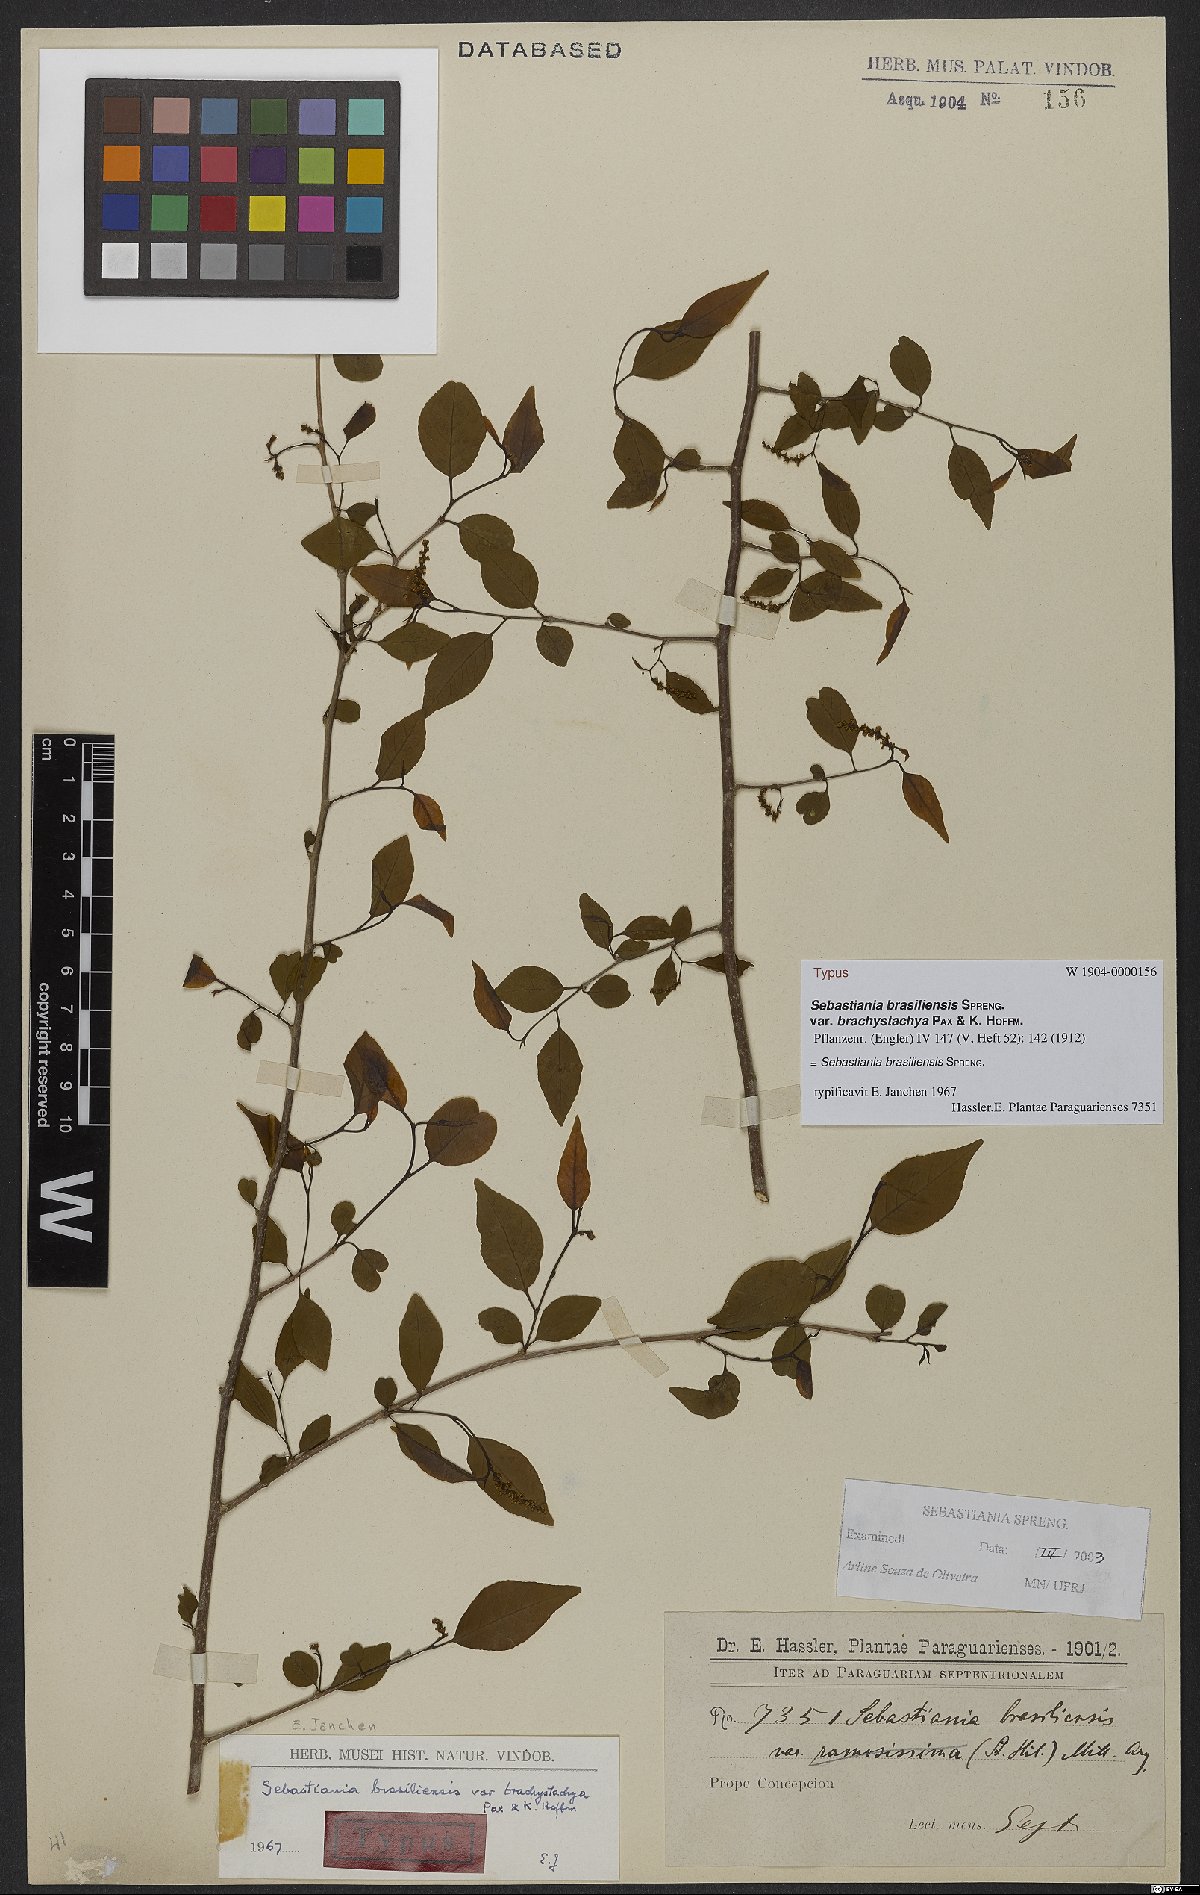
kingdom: Plantae
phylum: Tracheophyta
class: Magnoliopsida
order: Malpighiales
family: Euphorbiaceae
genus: Sebastiania
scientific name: Sebastiania brasiliensis
